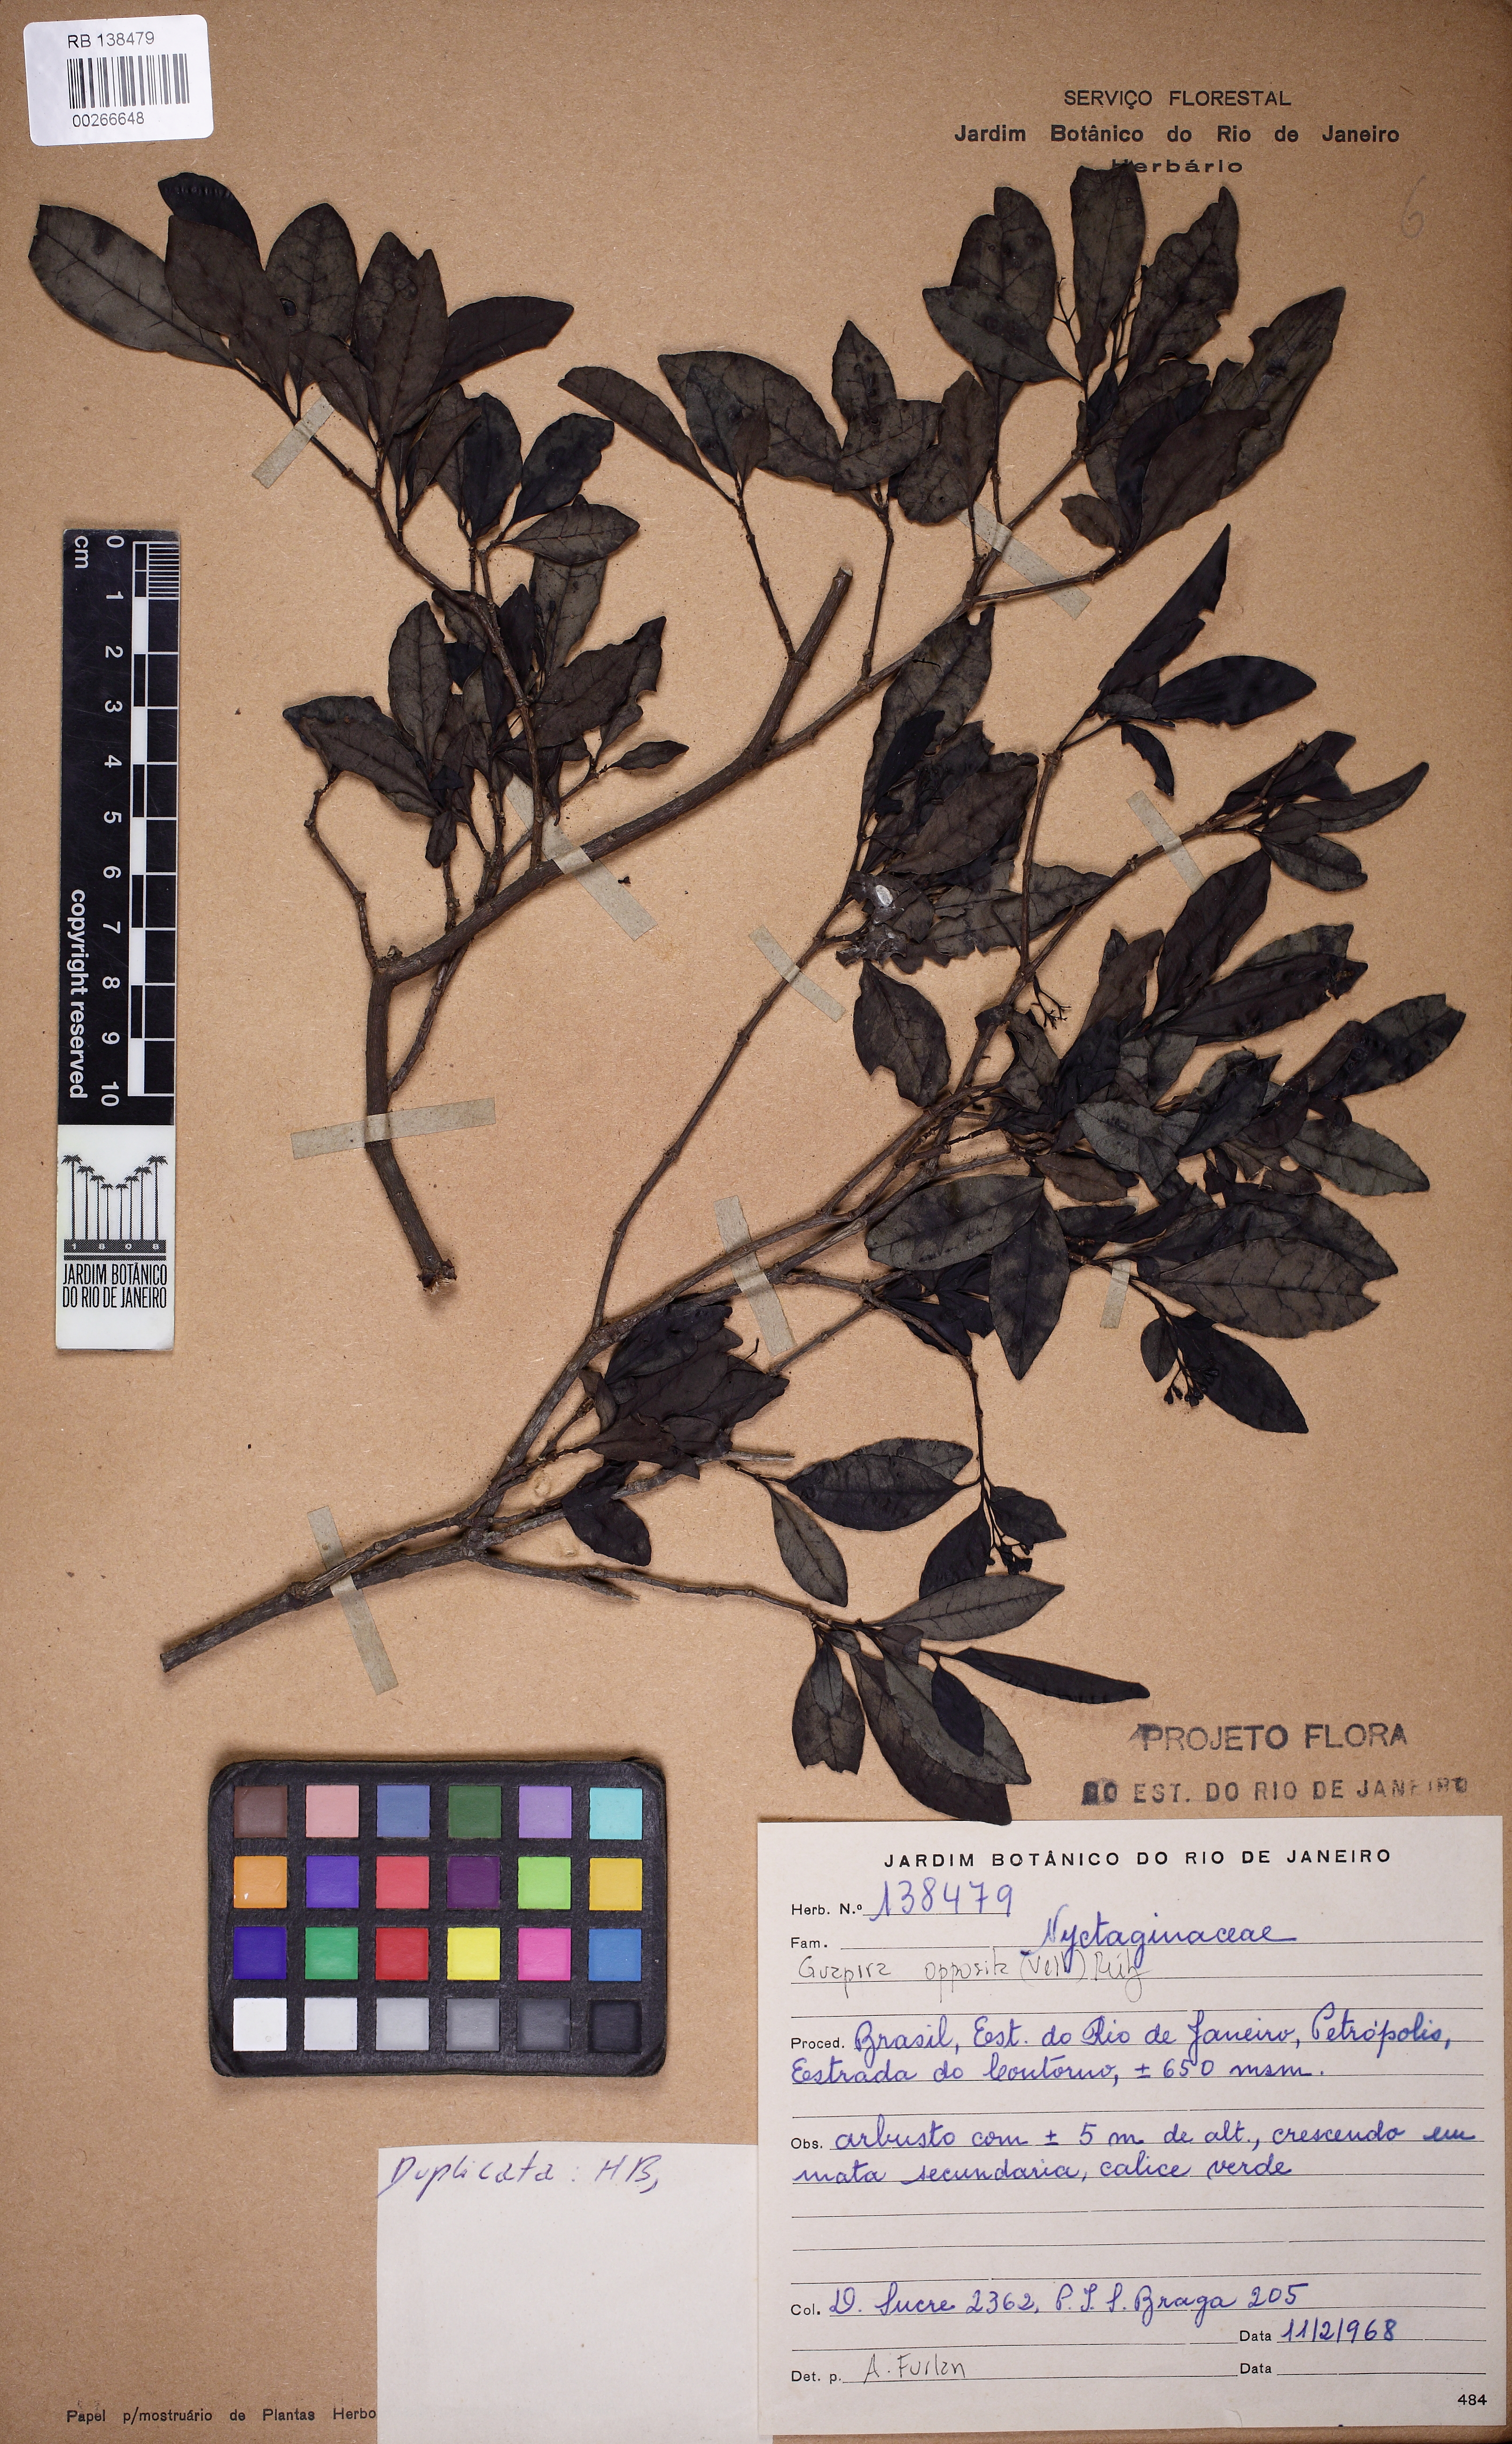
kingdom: Plantae
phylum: Tracheophyta
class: Magnoliopsida
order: Caryophyllales
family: Nyctaginaceae
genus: Guapira
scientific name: Guapira opposita
